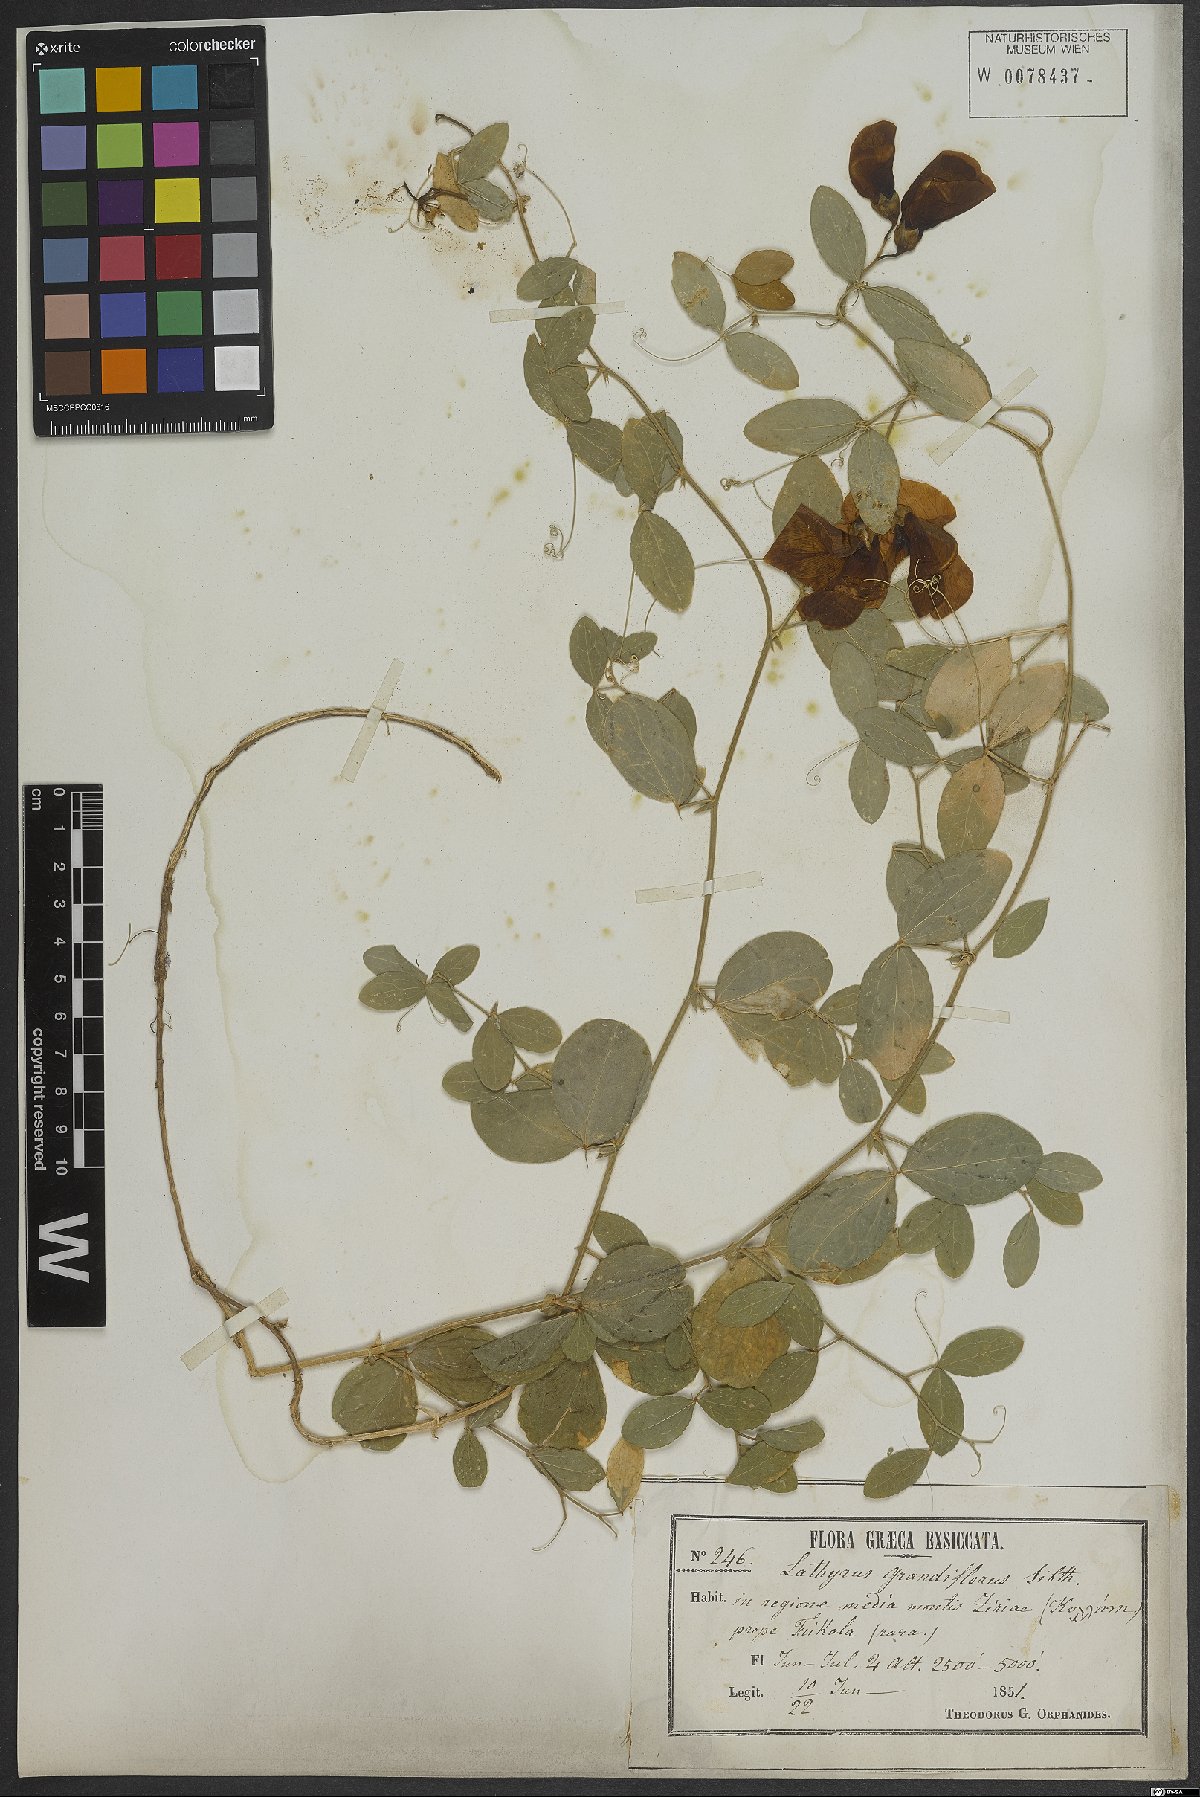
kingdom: Plantae
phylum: Tracheophyta
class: Magnoliopsida
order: Fabales
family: Fabaceae
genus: Lathyrus
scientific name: Lathyrus grandiflorus
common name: Two-flowered everlasting-pea
